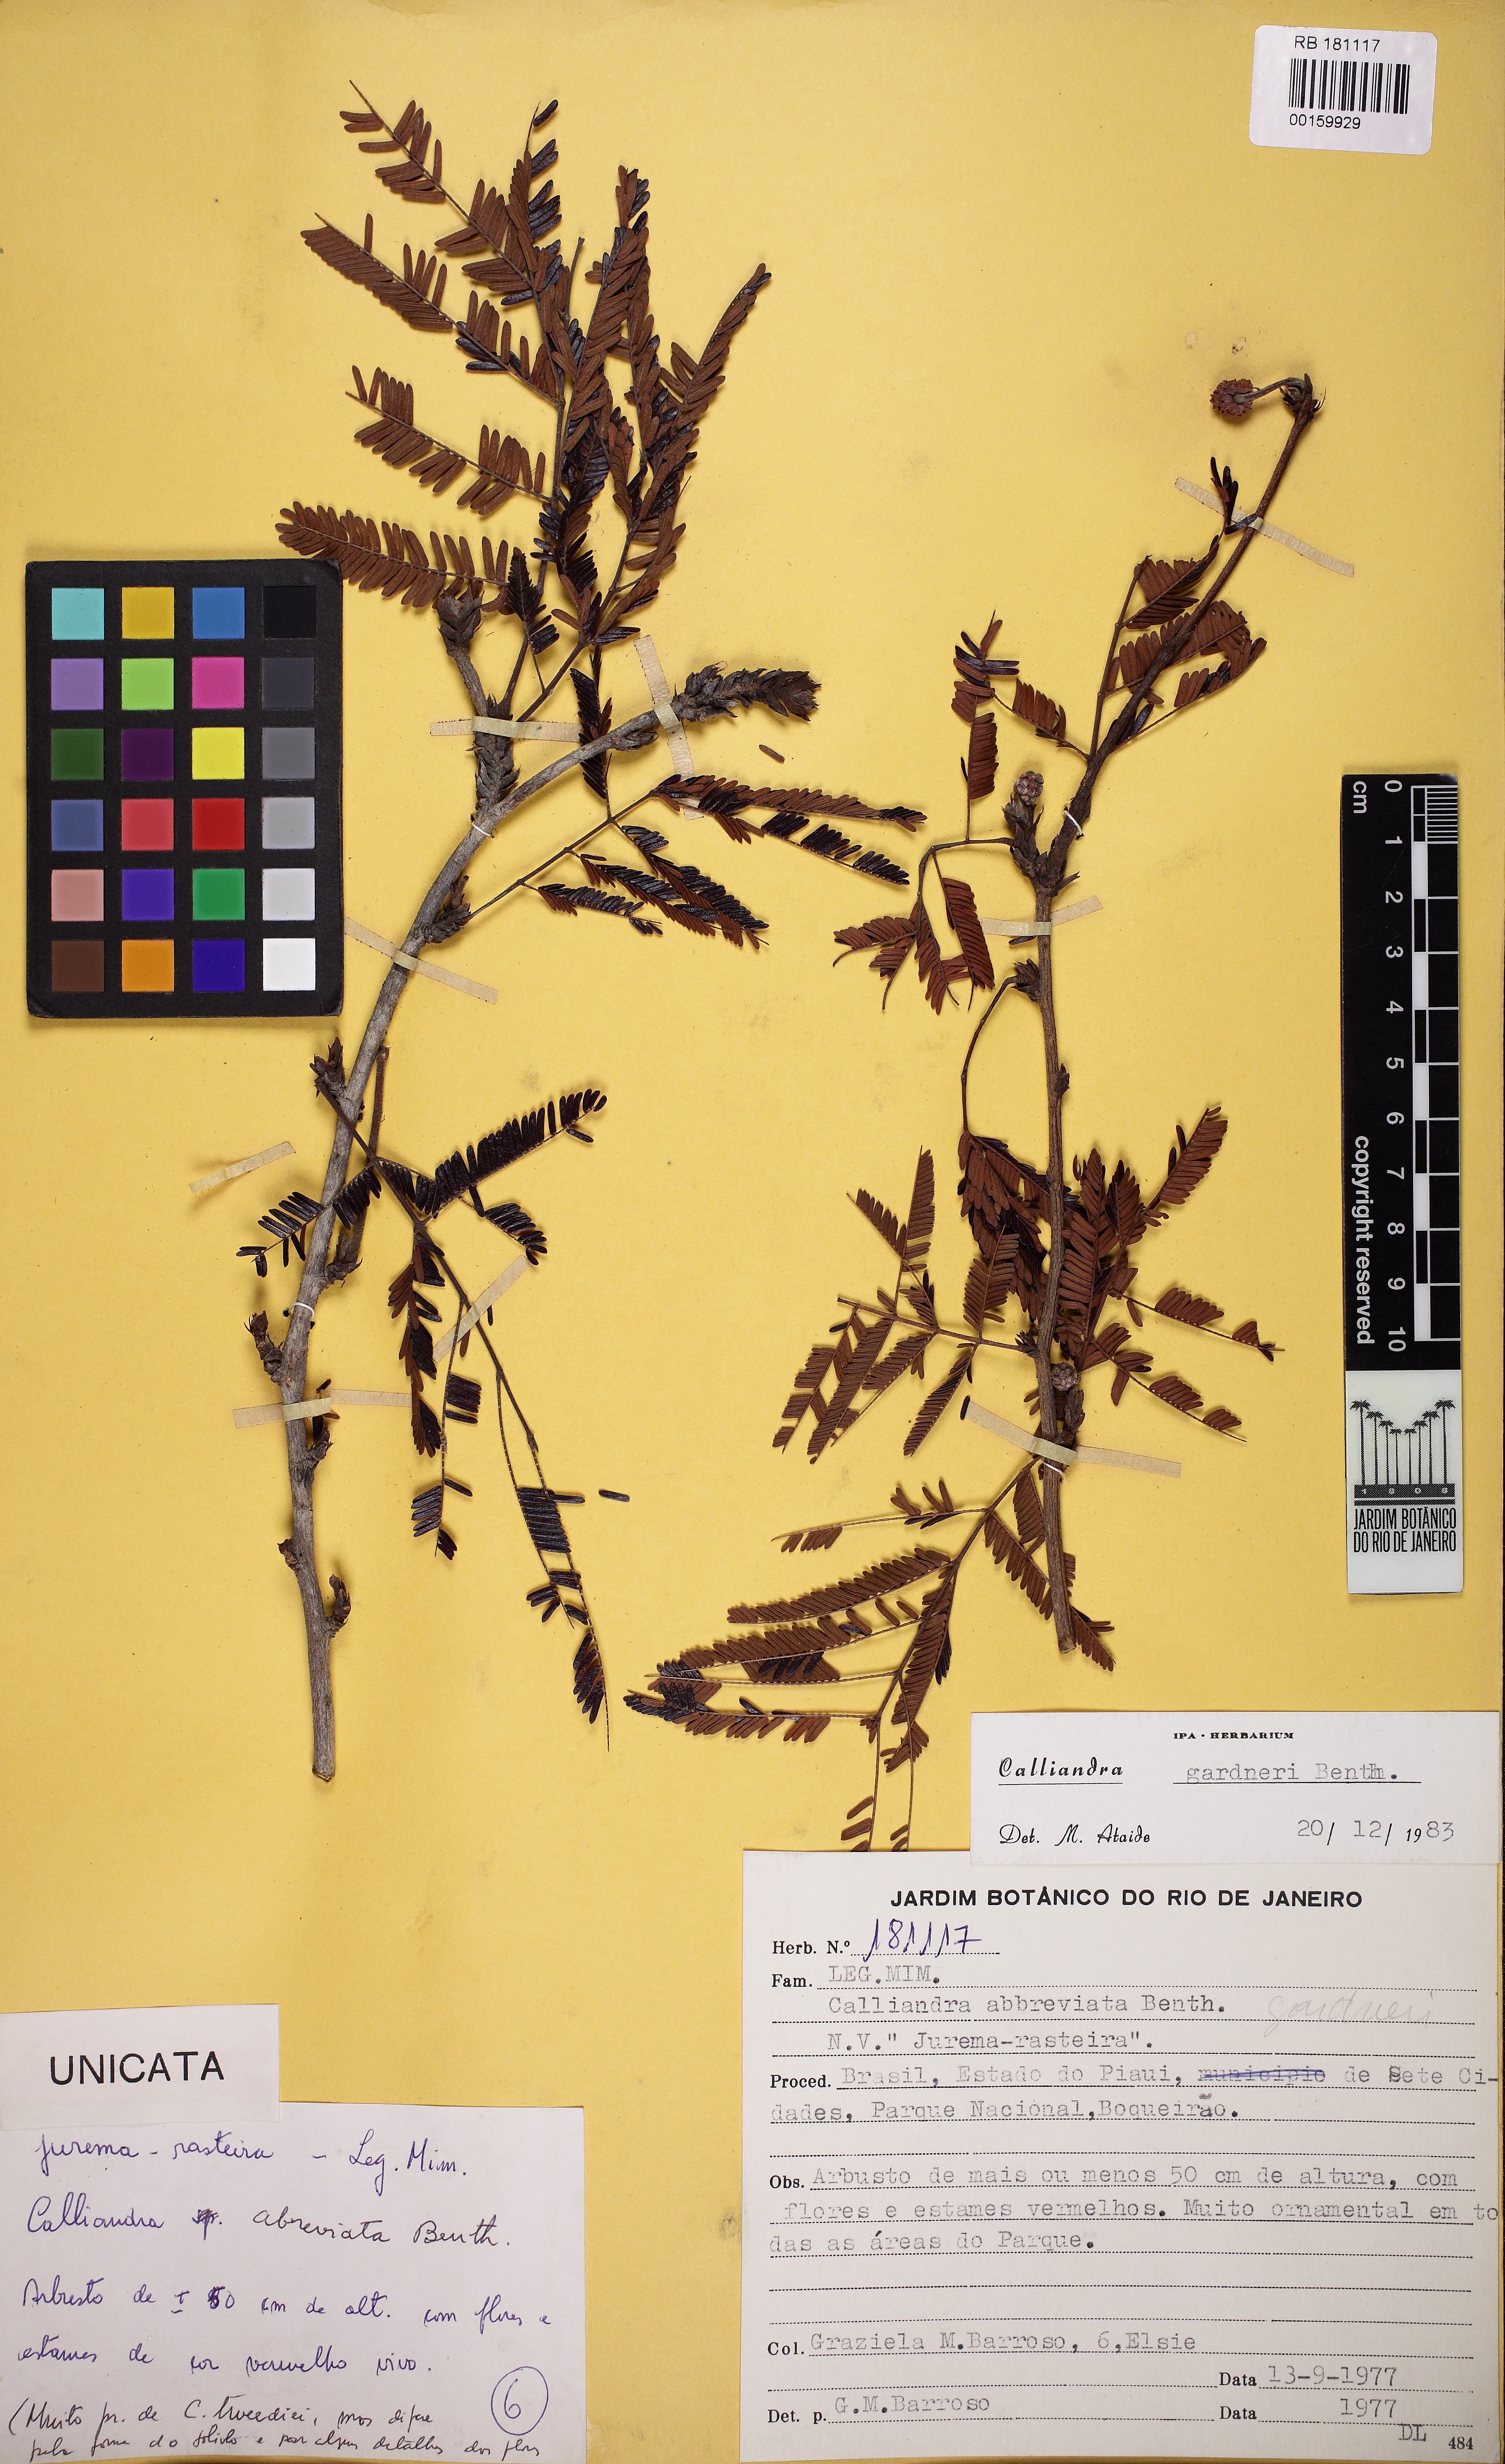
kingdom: Plantae
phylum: Tracheophyta
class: Magnoliopsida
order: Fabales
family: Fabaceae
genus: Calliandra
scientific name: Calliandra gardneri
